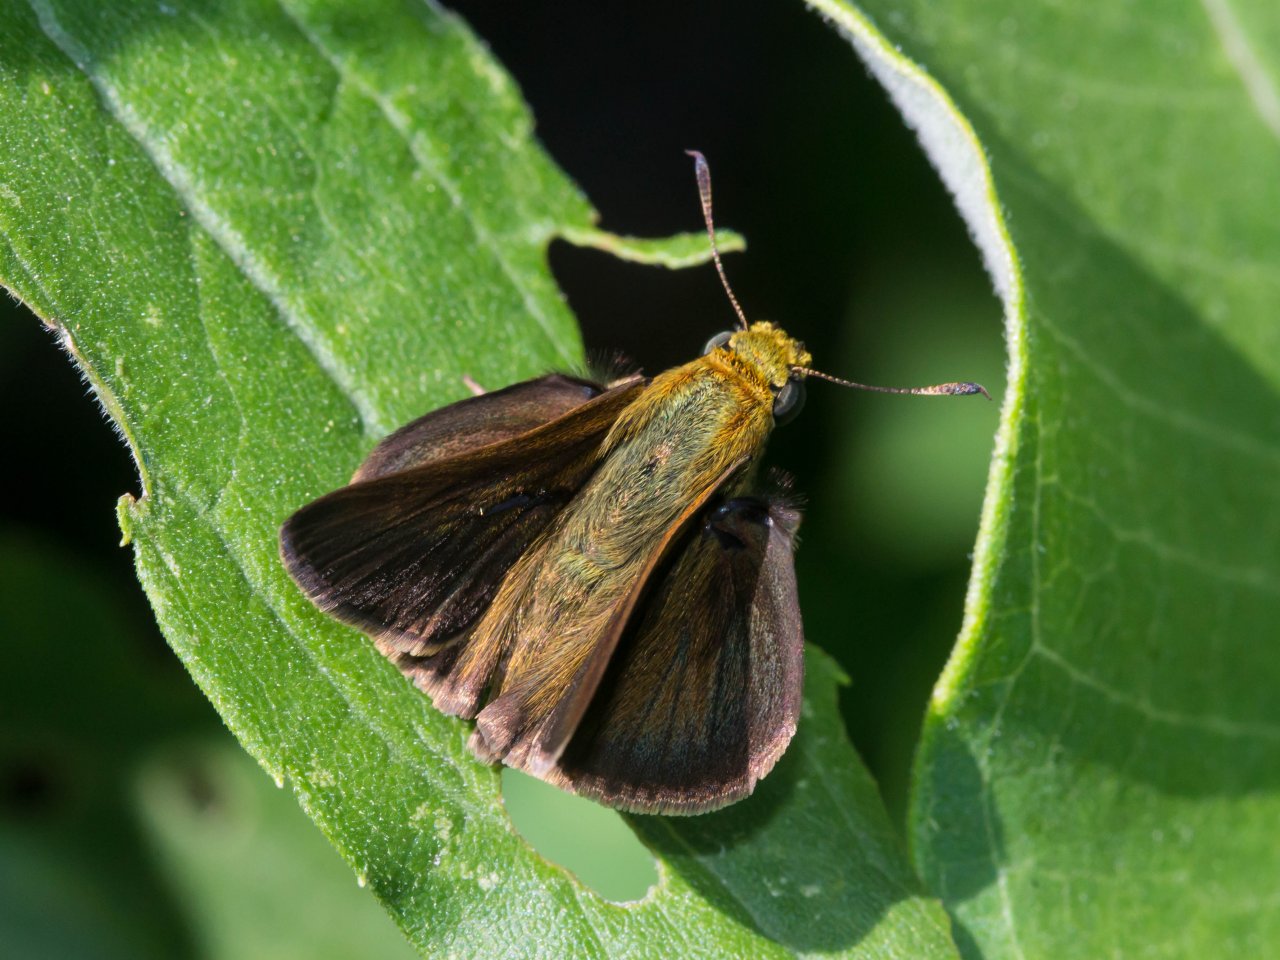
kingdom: Animalia
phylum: Arthropoda
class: Insecta
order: Lepidoptera
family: Hesperiidae
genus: Euphyes
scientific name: Euphyes vestris
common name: Dun Skipper
